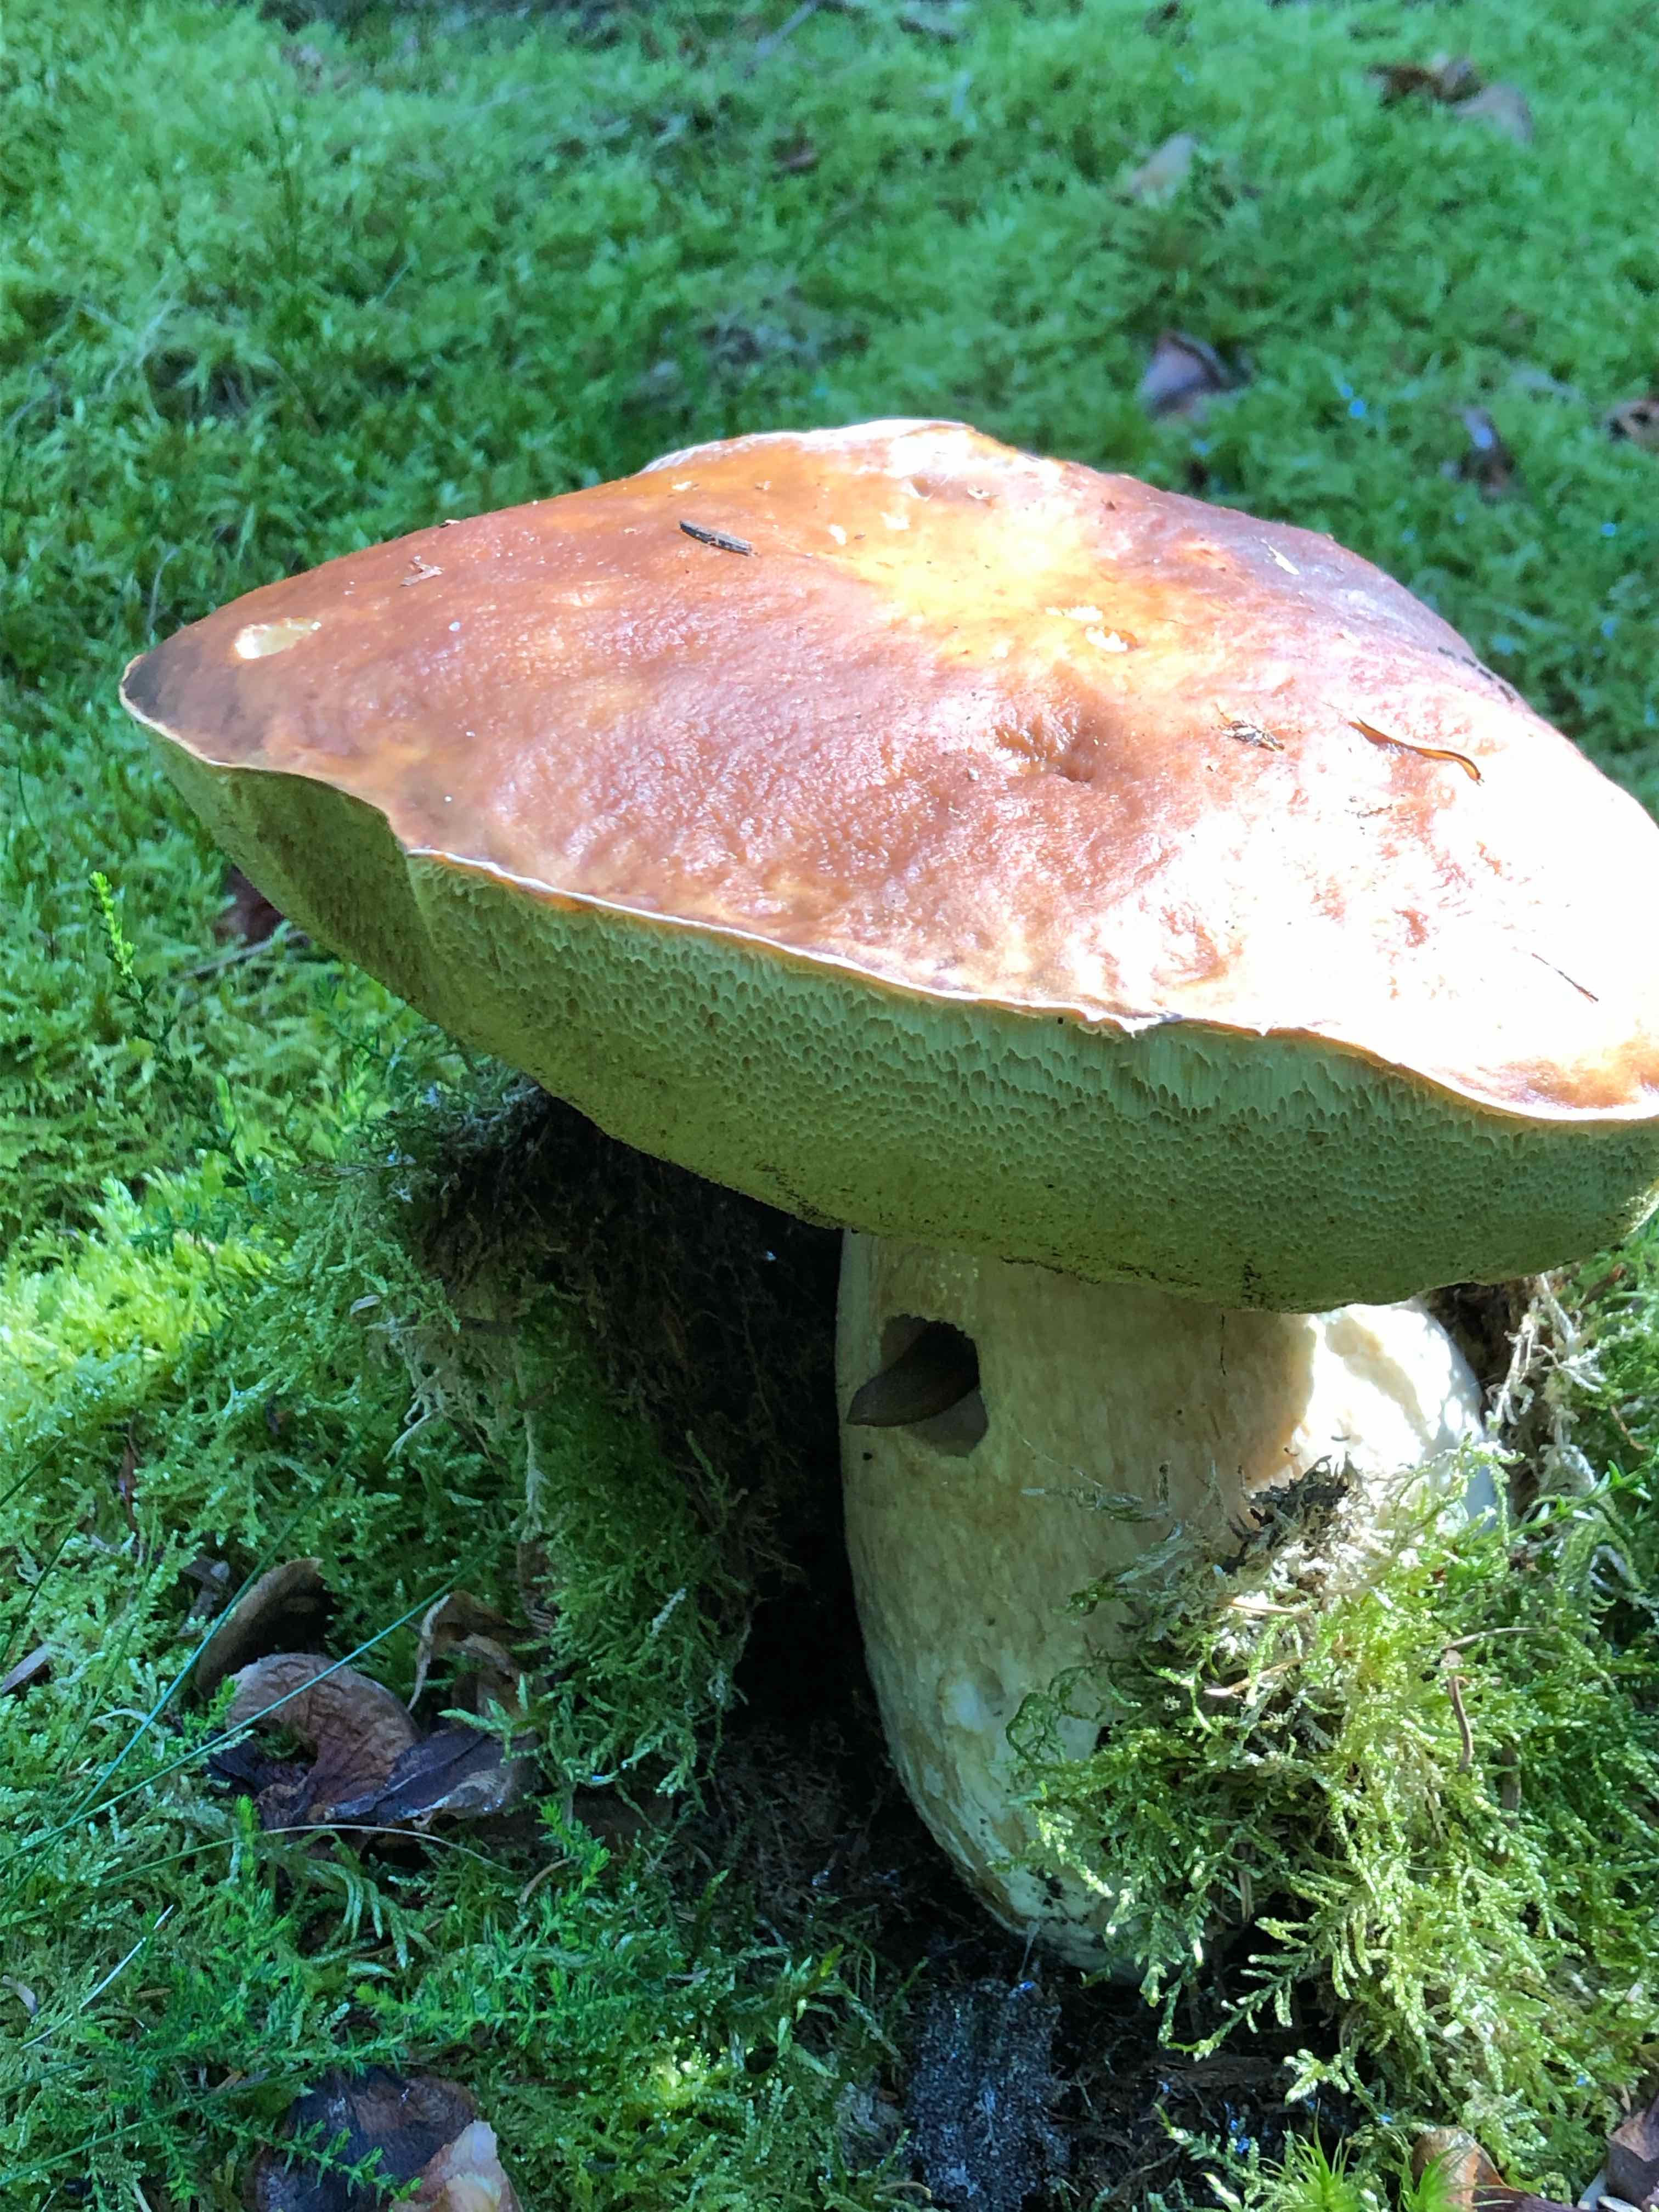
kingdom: Fungi
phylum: Basidiomycota
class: Agaricomycetes
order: Boletales
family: Boletaceae
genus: Boletus
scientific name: Boletus edulis
